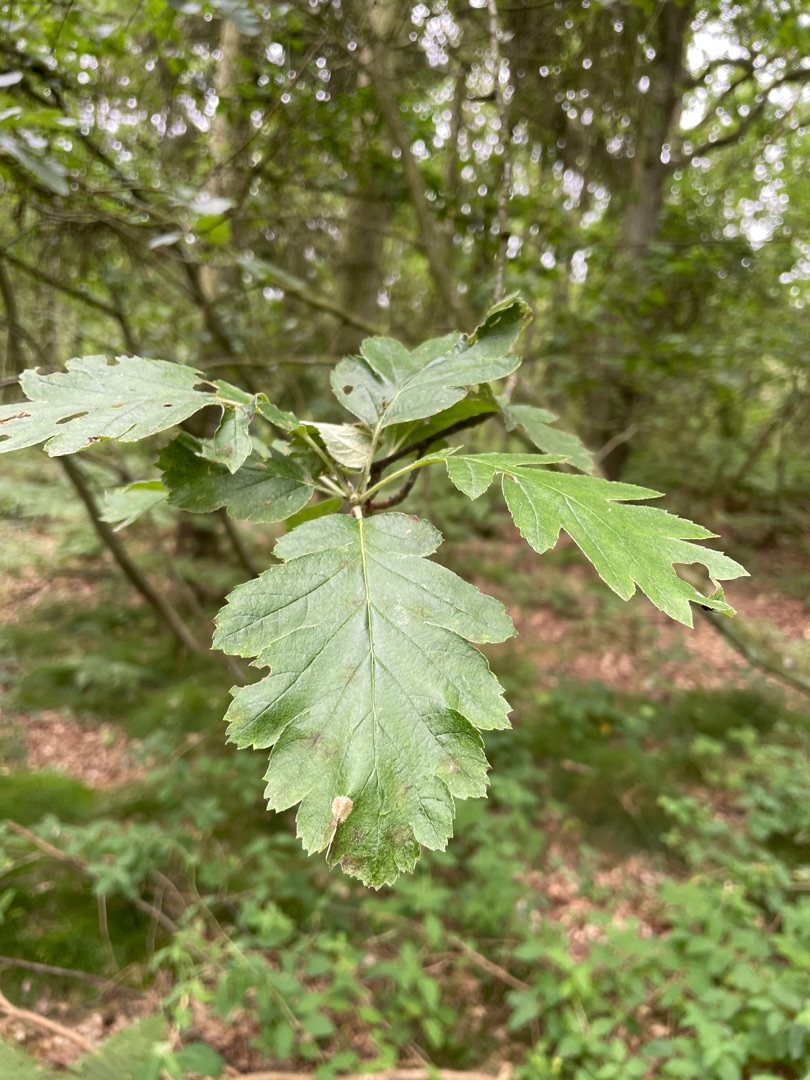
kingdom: Plantae
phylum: Tracheophyta
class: Magnoliopsida
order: Rosales
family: Rosaceae
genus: Scandosorbus
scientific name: Scandosorbus intermedia
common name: Selje-røn
